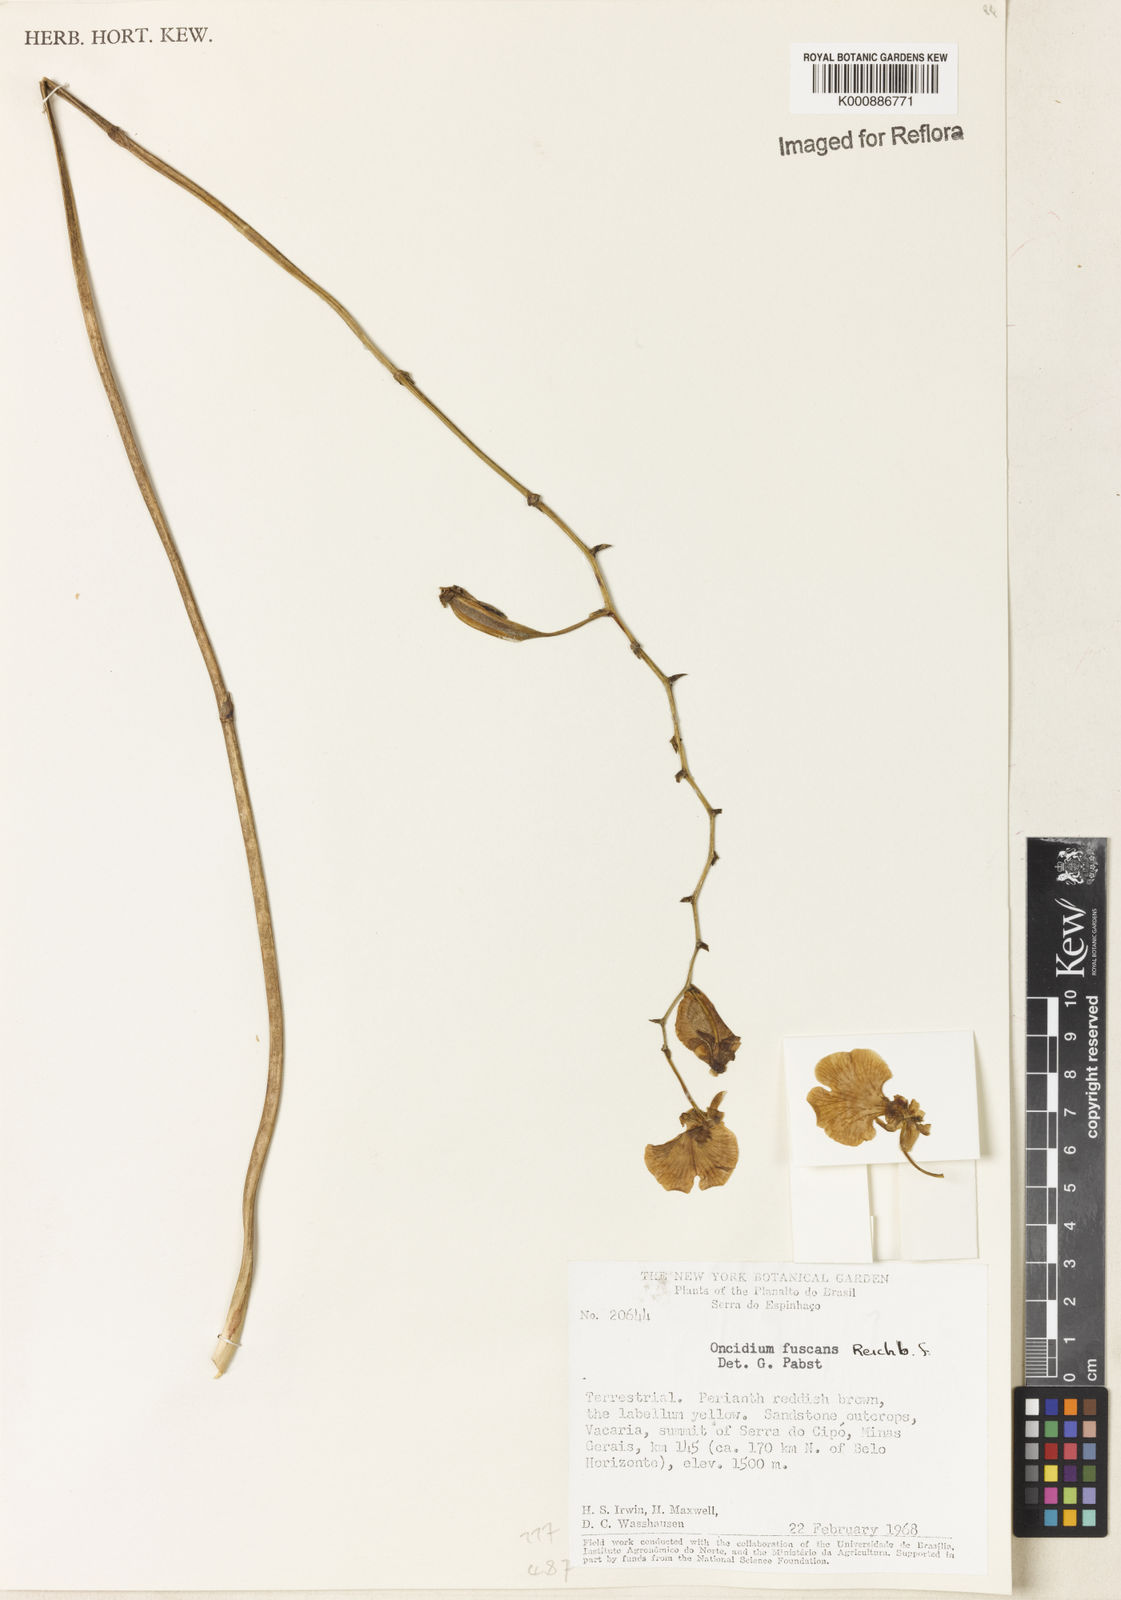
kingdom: Plantae
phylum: Tracheophyta
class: Liliopsida
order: Asparagales
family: Orchidaceae
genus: Gomesa
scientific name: Gomesa maculosa
